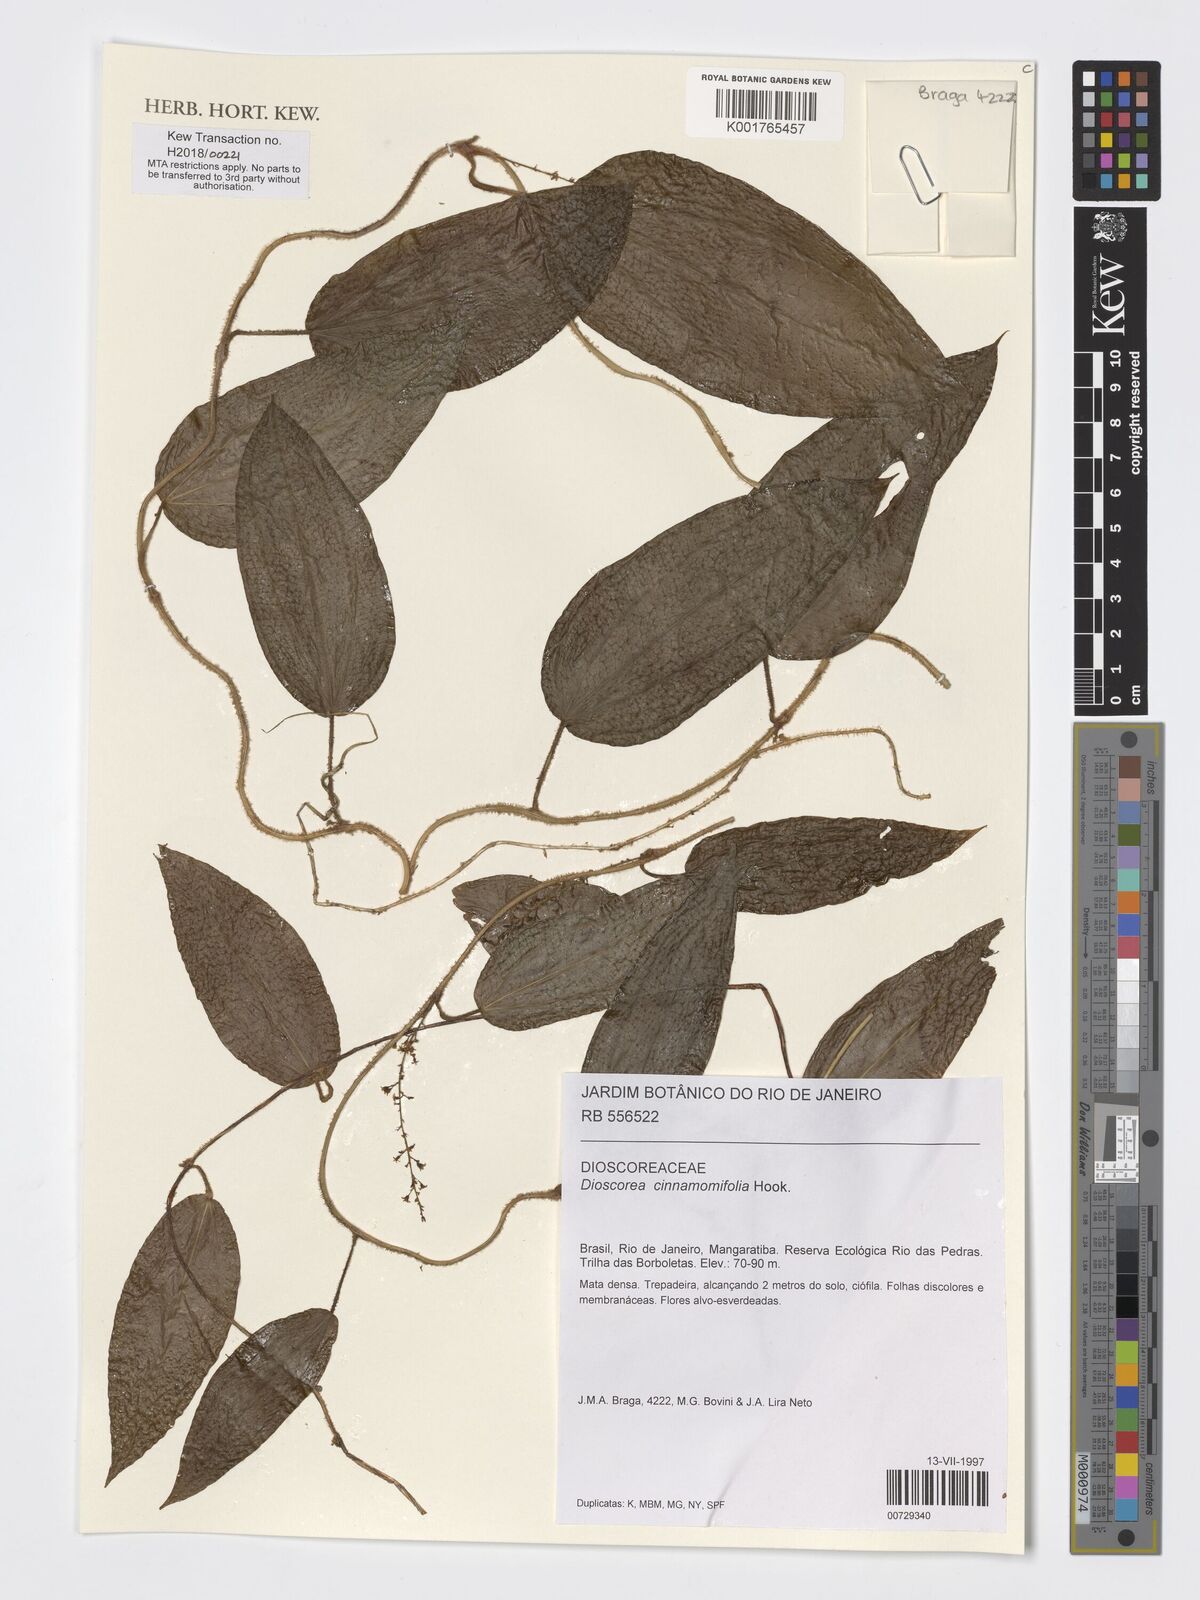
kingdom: Plantae
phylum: Tracheophyta
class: Liliopsida
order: Dioscoreales
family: Dioscoreaceae
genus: Dioscorea
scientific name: Dioscorea cinnamomifolia
